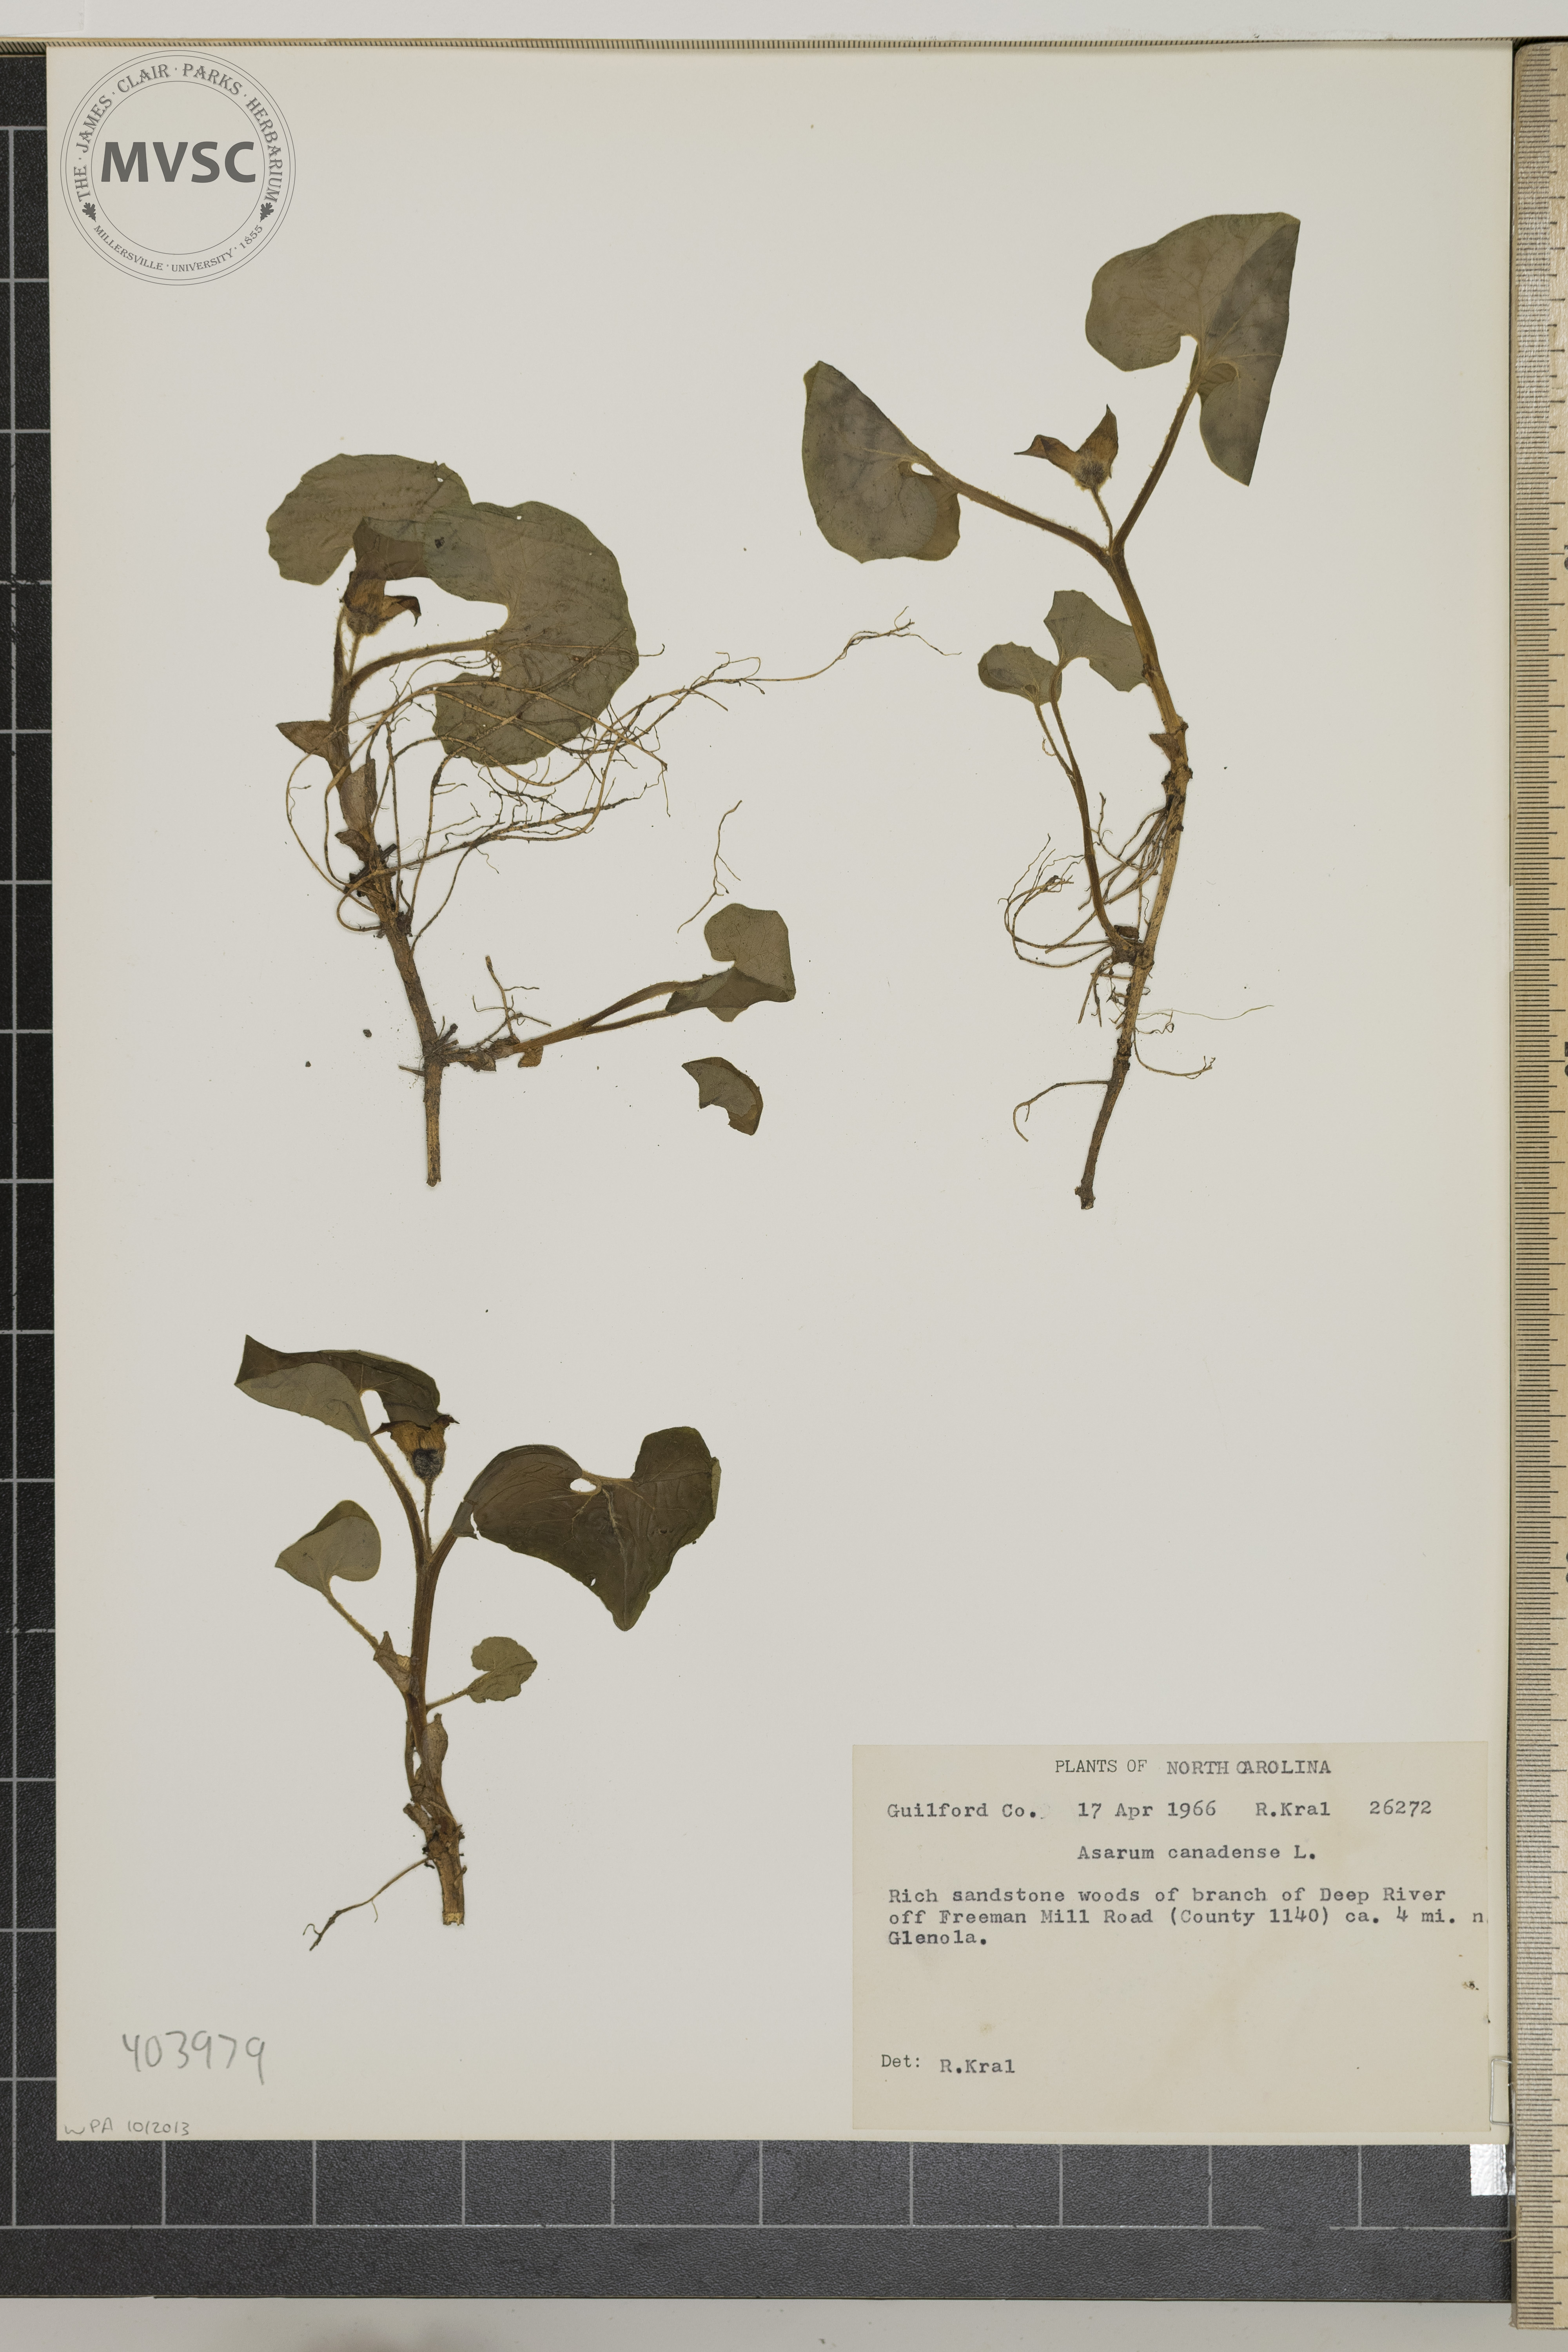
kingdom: Plantae
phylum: Tracheophyta
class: Magnoliopsida
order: Piperales
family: Aristolochiaceae
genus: Asarum
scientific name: Asarum canadense
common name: Wild ginger
